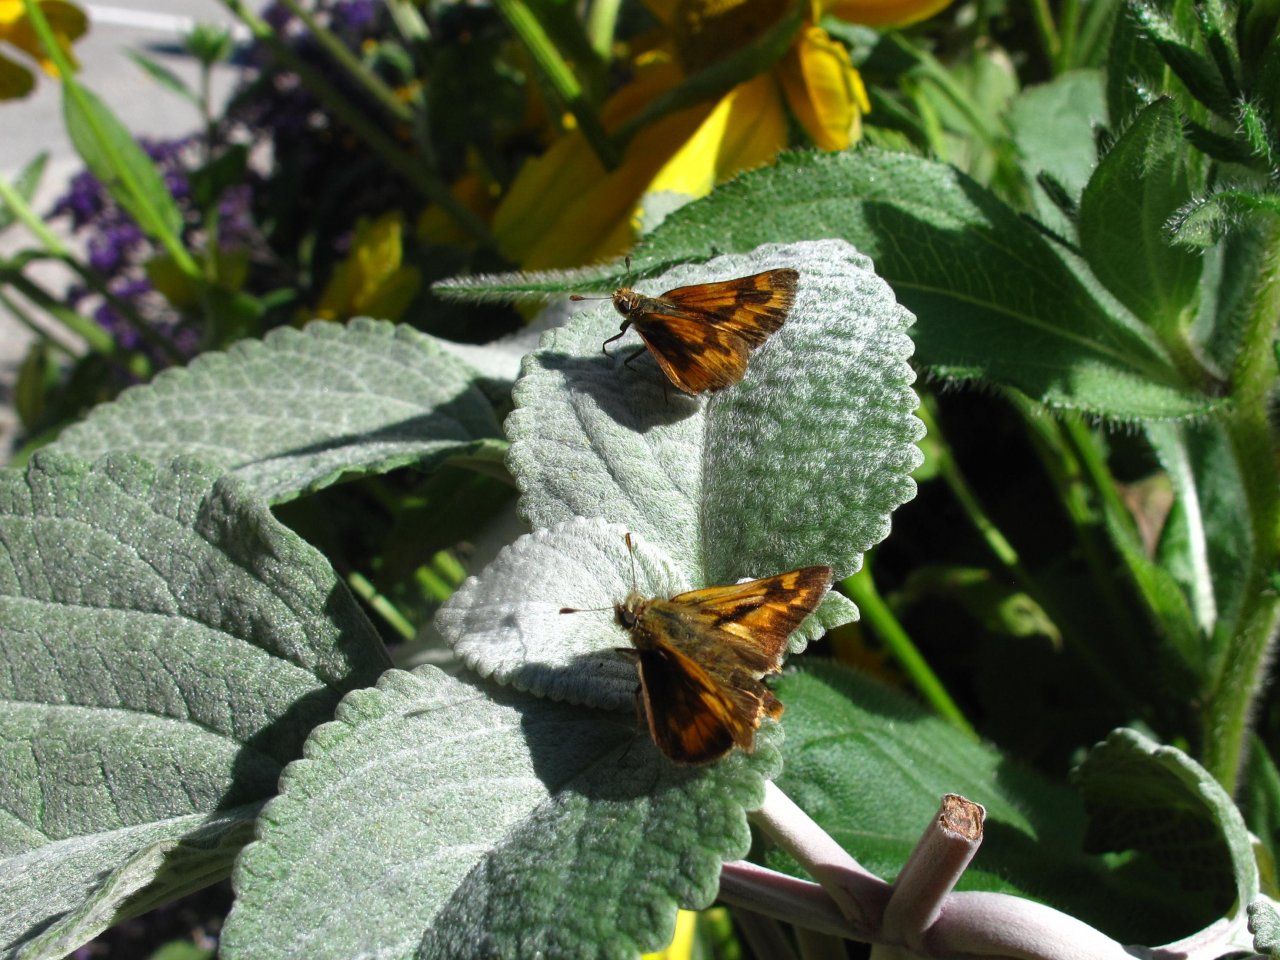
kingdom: Animalia
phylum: Arthropoda
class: Insecta
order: Lepidoptera
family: Hesperiidae
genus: Ochlodes
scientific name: Ochlodes sylvanoides
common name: Woodland Skipper
